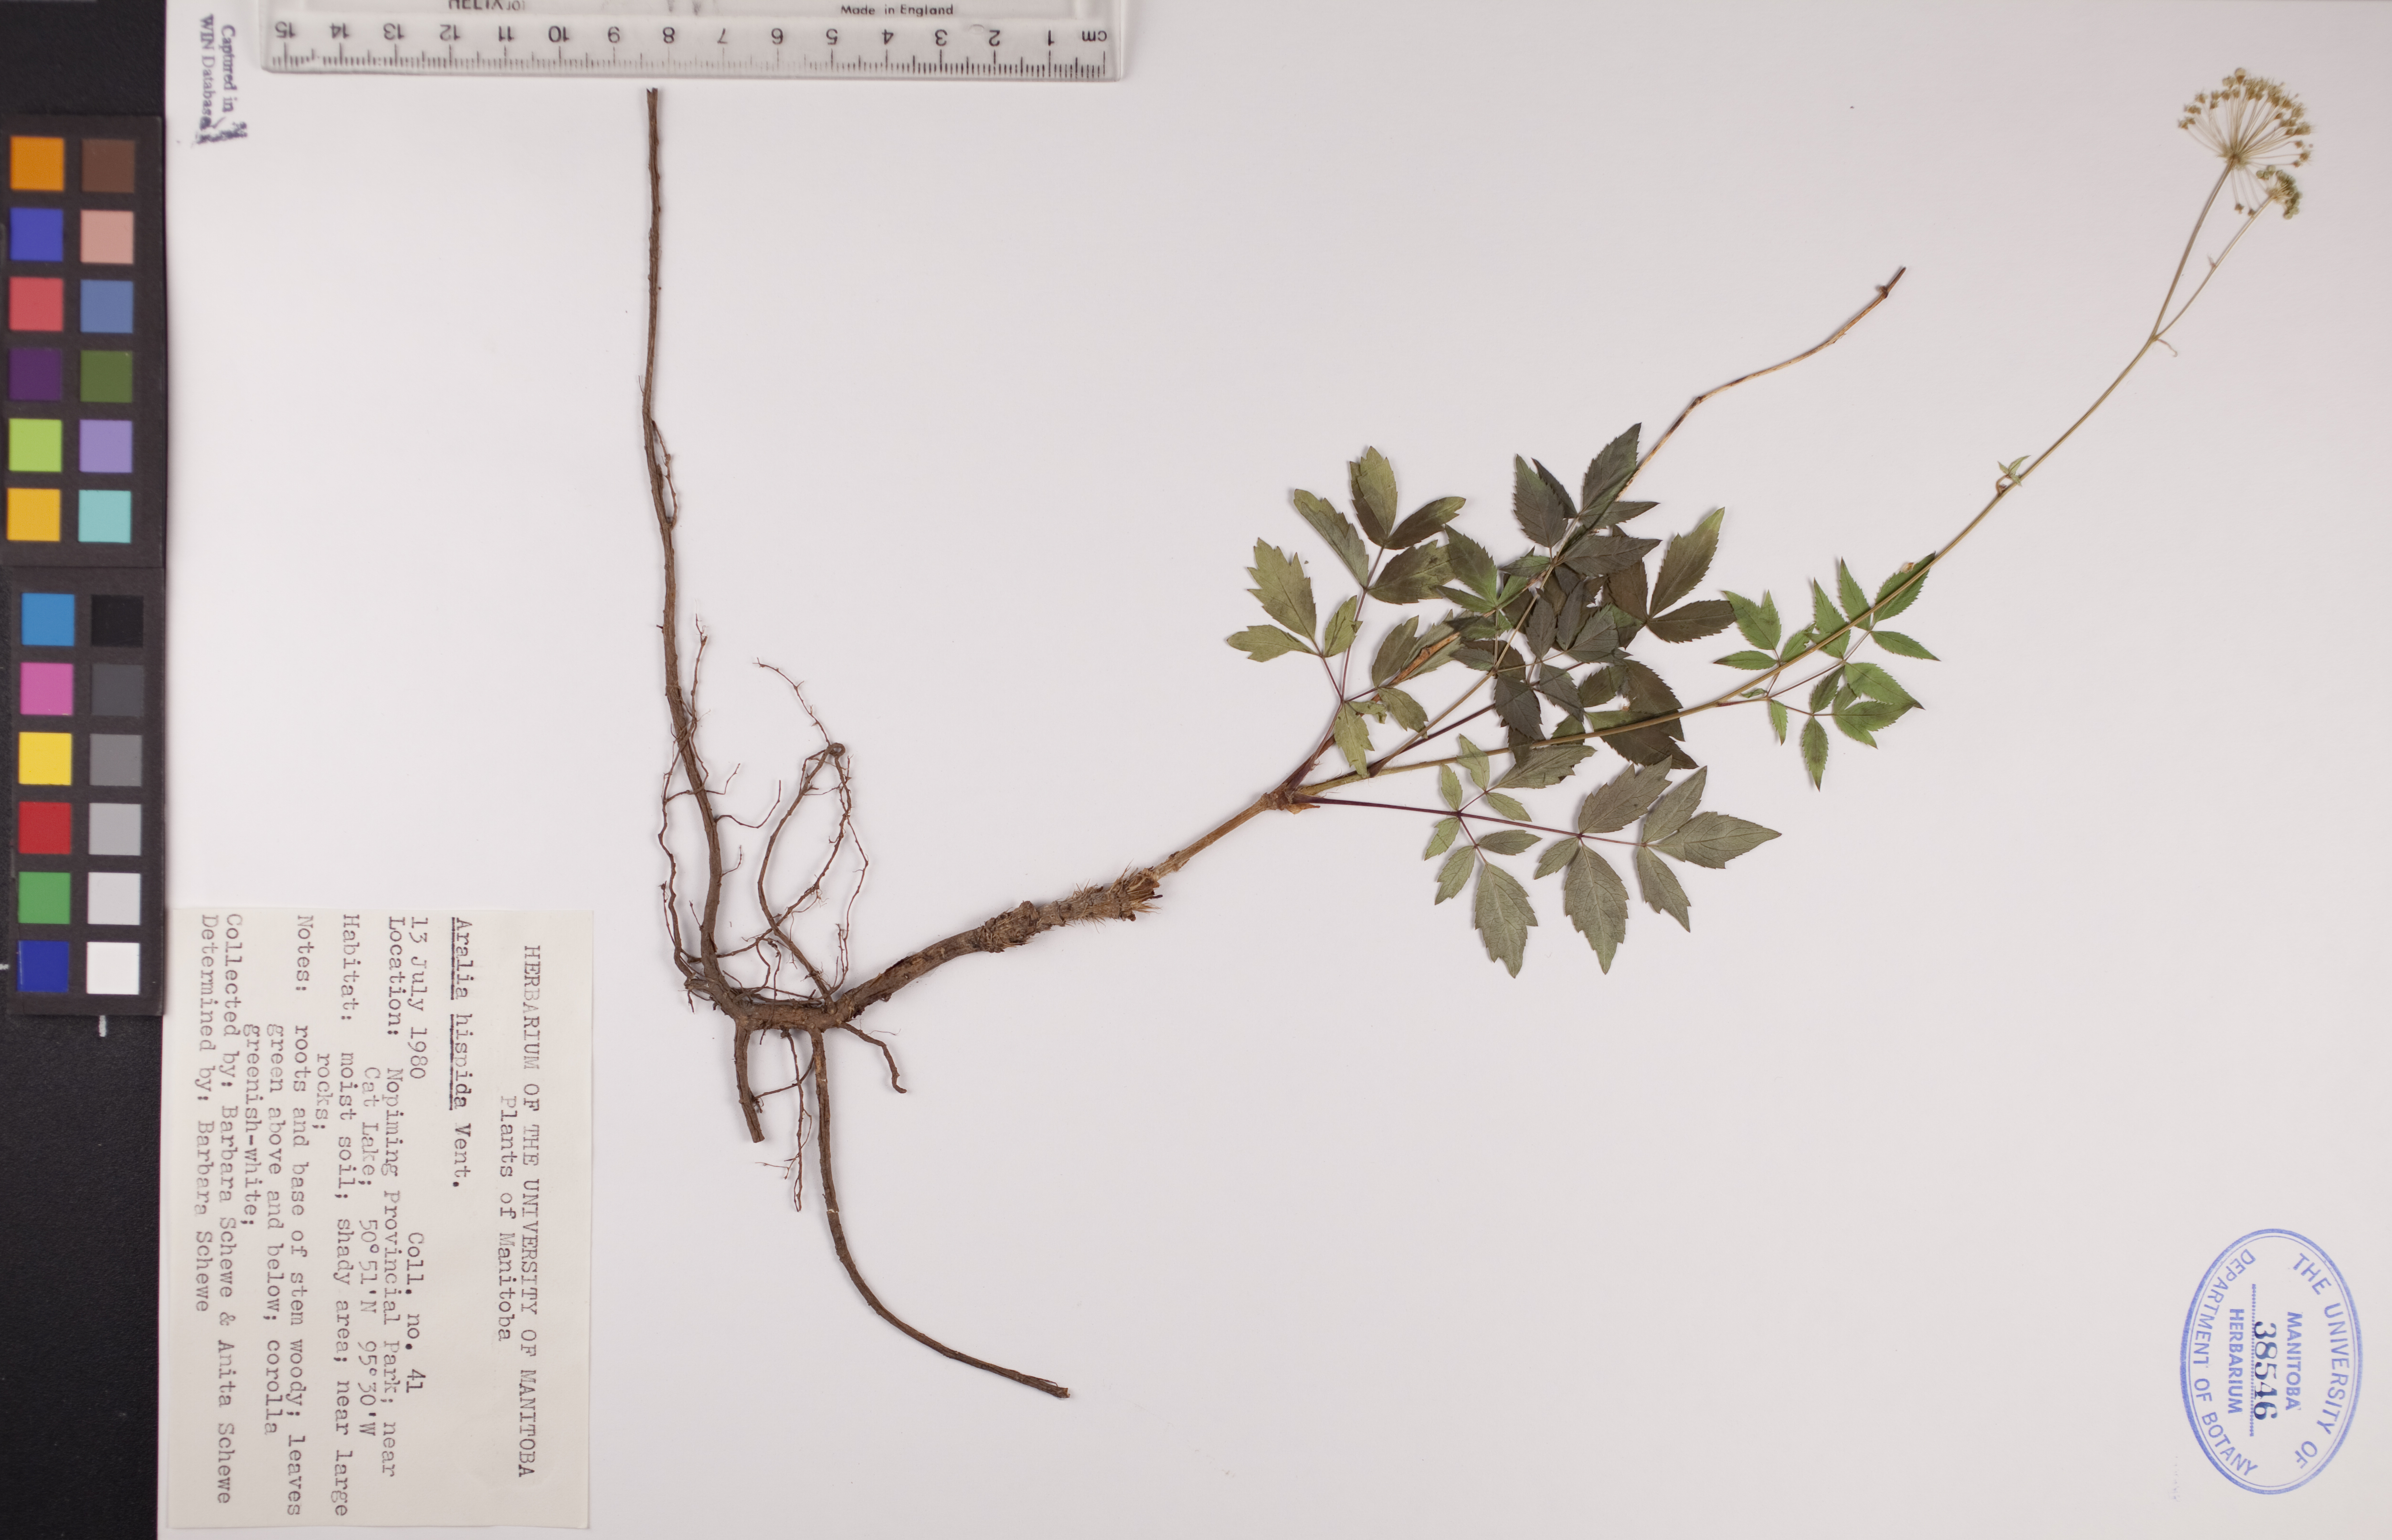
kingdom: Plantae
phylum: Tracheophyta
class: Magnoliopsida
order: Apiales
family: Araliaceae
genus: Aralia
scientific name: Aralia hispida
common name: Bristly sarsaparilla
